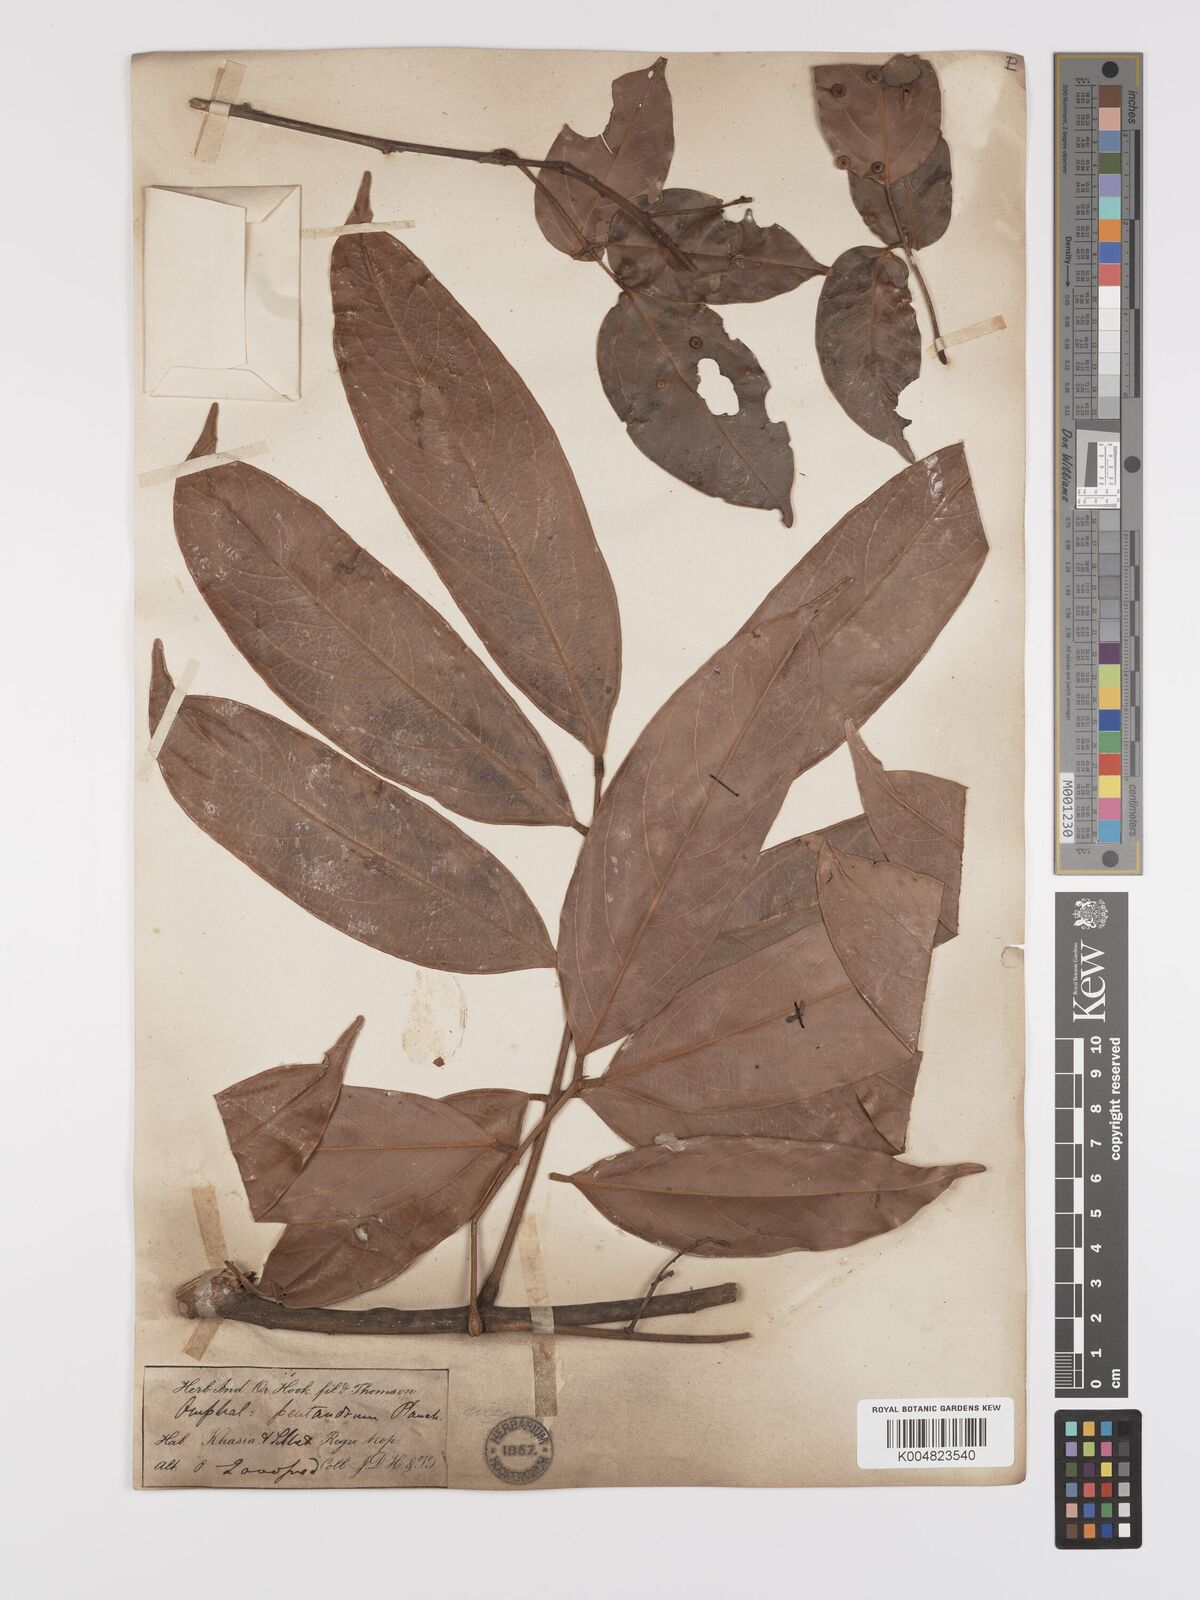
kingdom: Plantae
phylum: Tracheophyta
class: Magnoliopsida
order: Oxalidales
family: Connaraceae
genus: Connarus
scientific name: Connarus paniculatus
